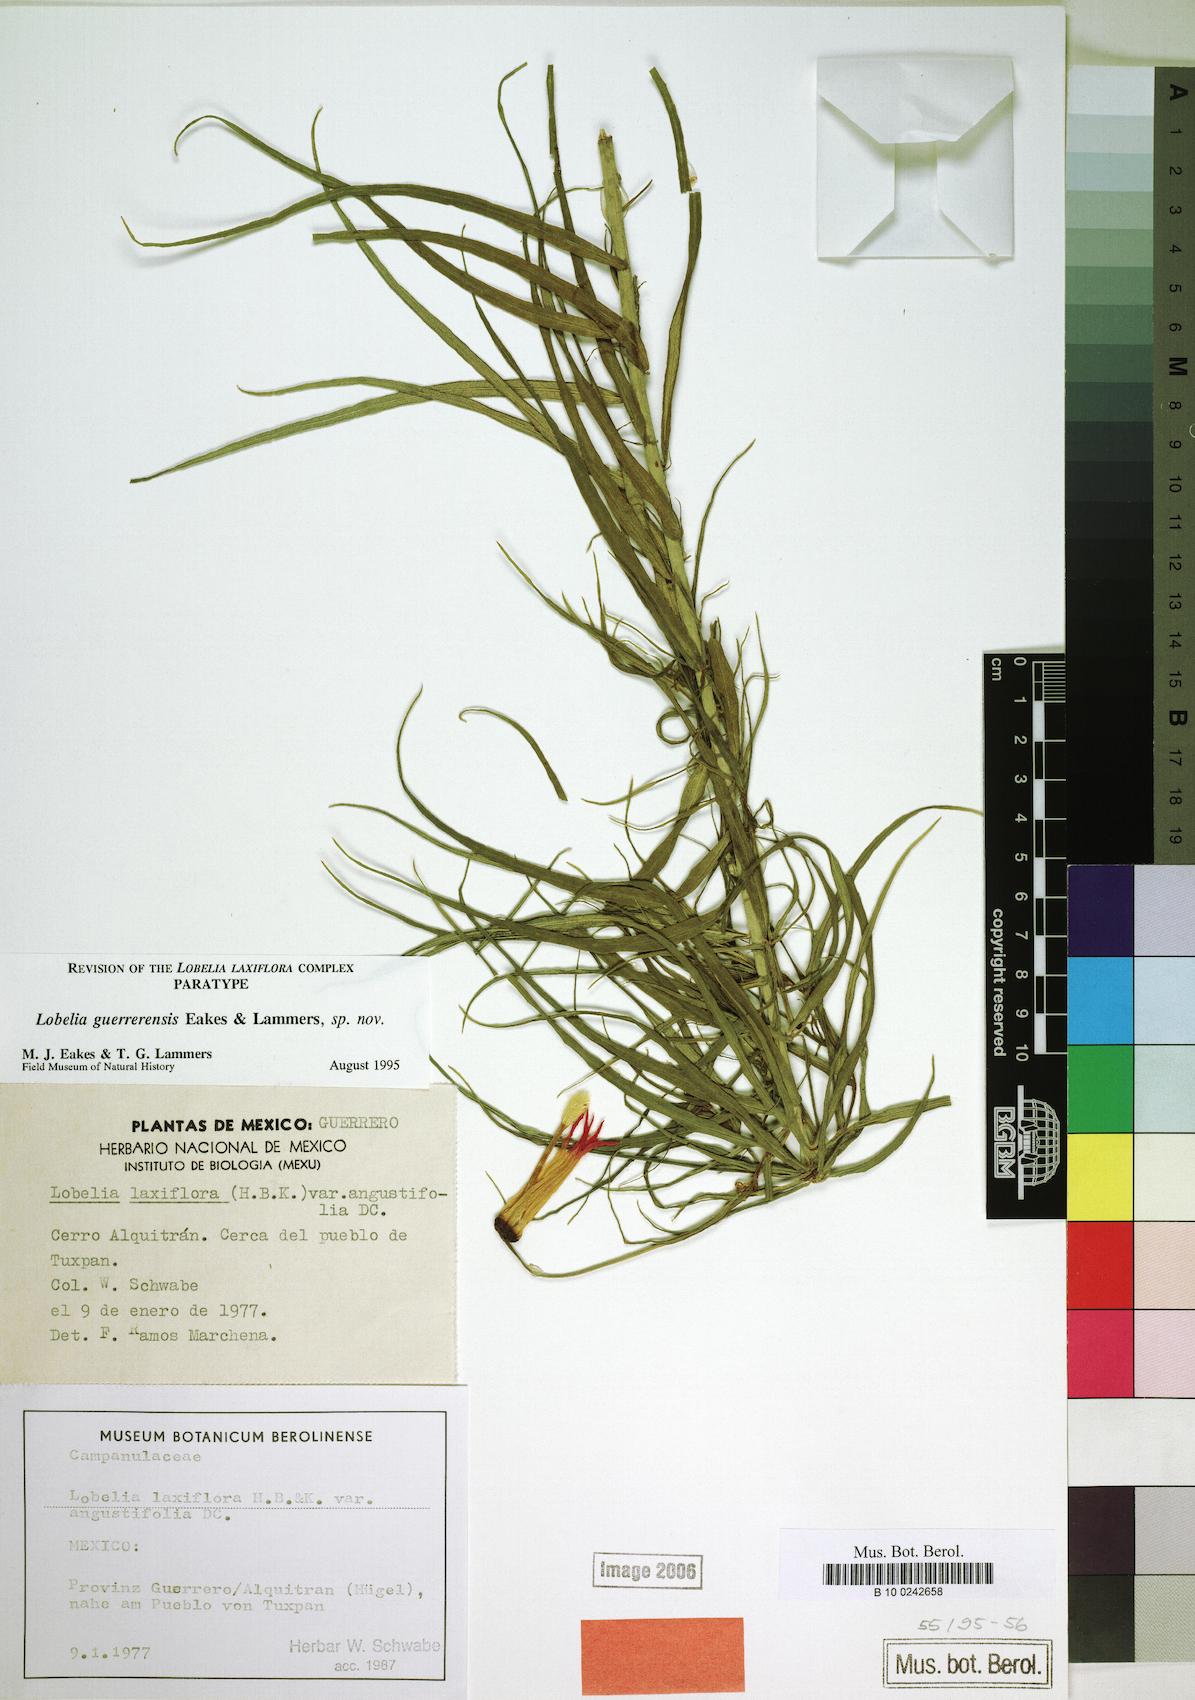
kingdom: Plantae
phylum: Tracheophyta
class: Magnoliopsida
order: Asterales
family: Campanulaceae
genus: Lobelia
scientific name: Lobelia guerrerensis
